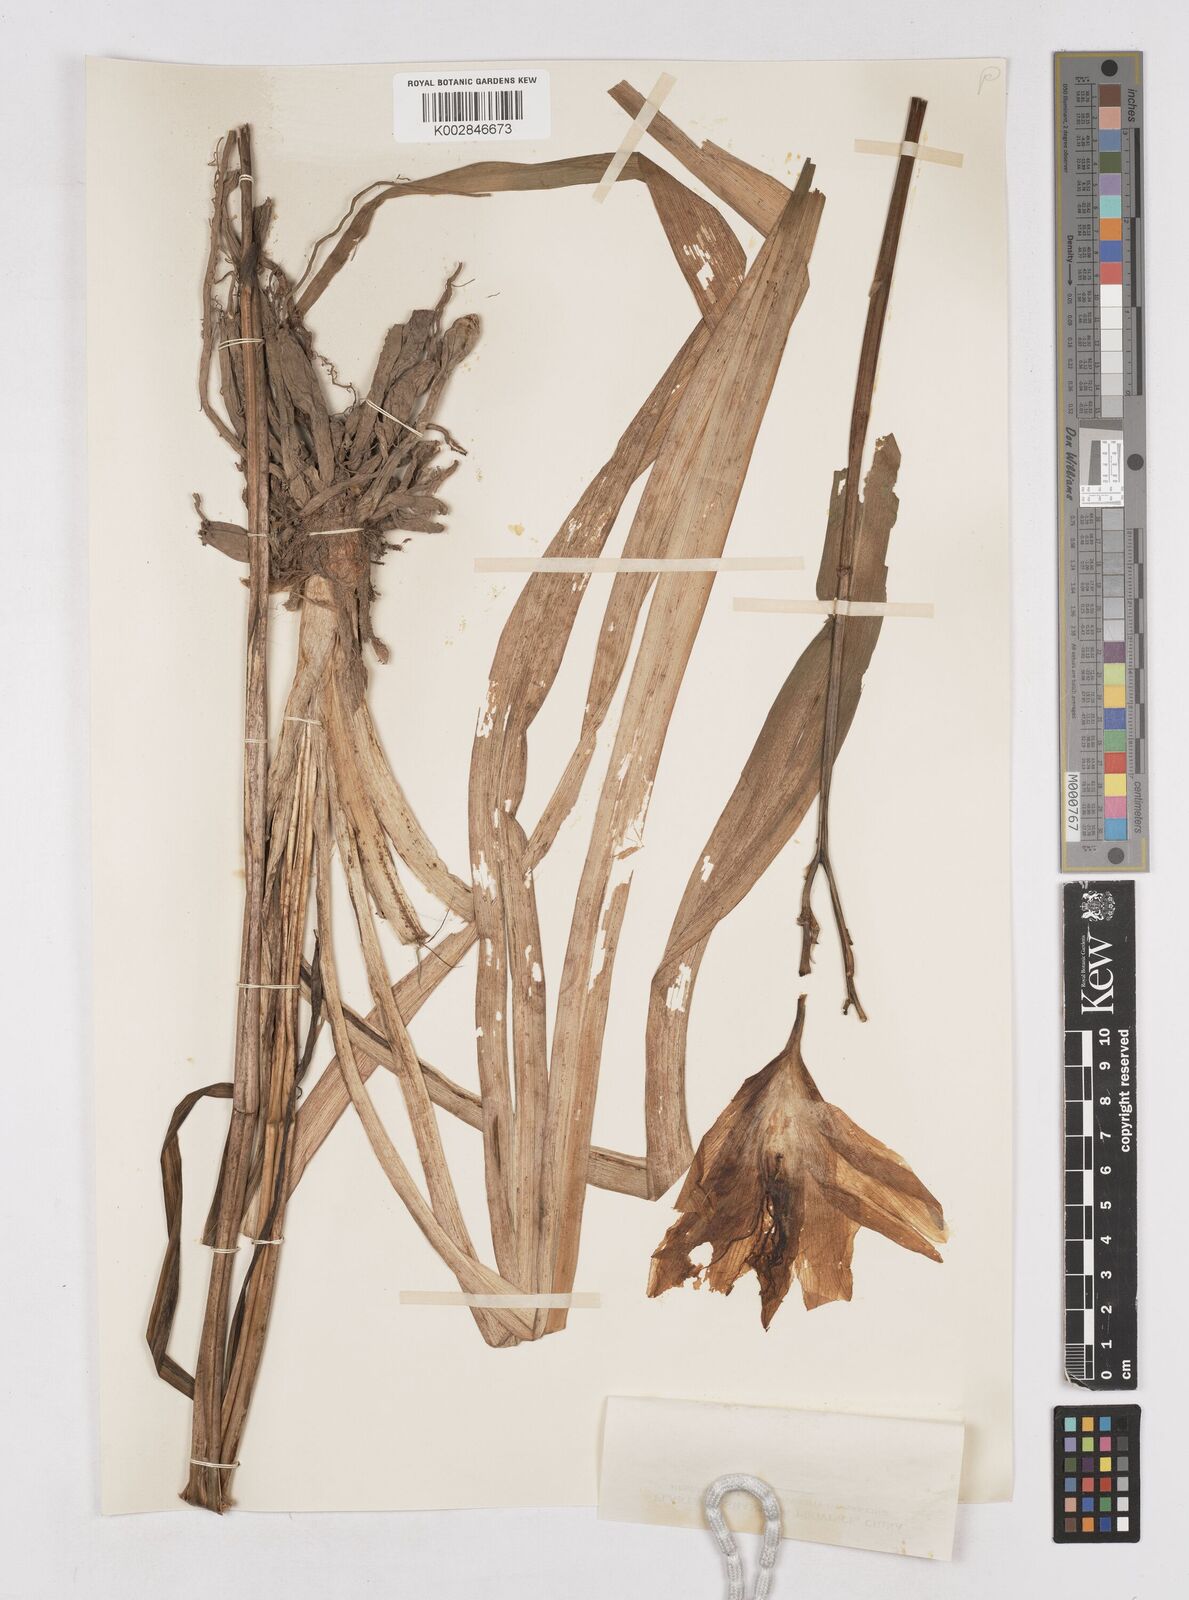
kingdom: Plantae
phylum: Tracheophyta
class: Liliopsida
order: Asparagales
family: Asphodelaceae
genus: Hemerocallis
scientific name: Hemerocallis fulva
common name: Orange day-lily
